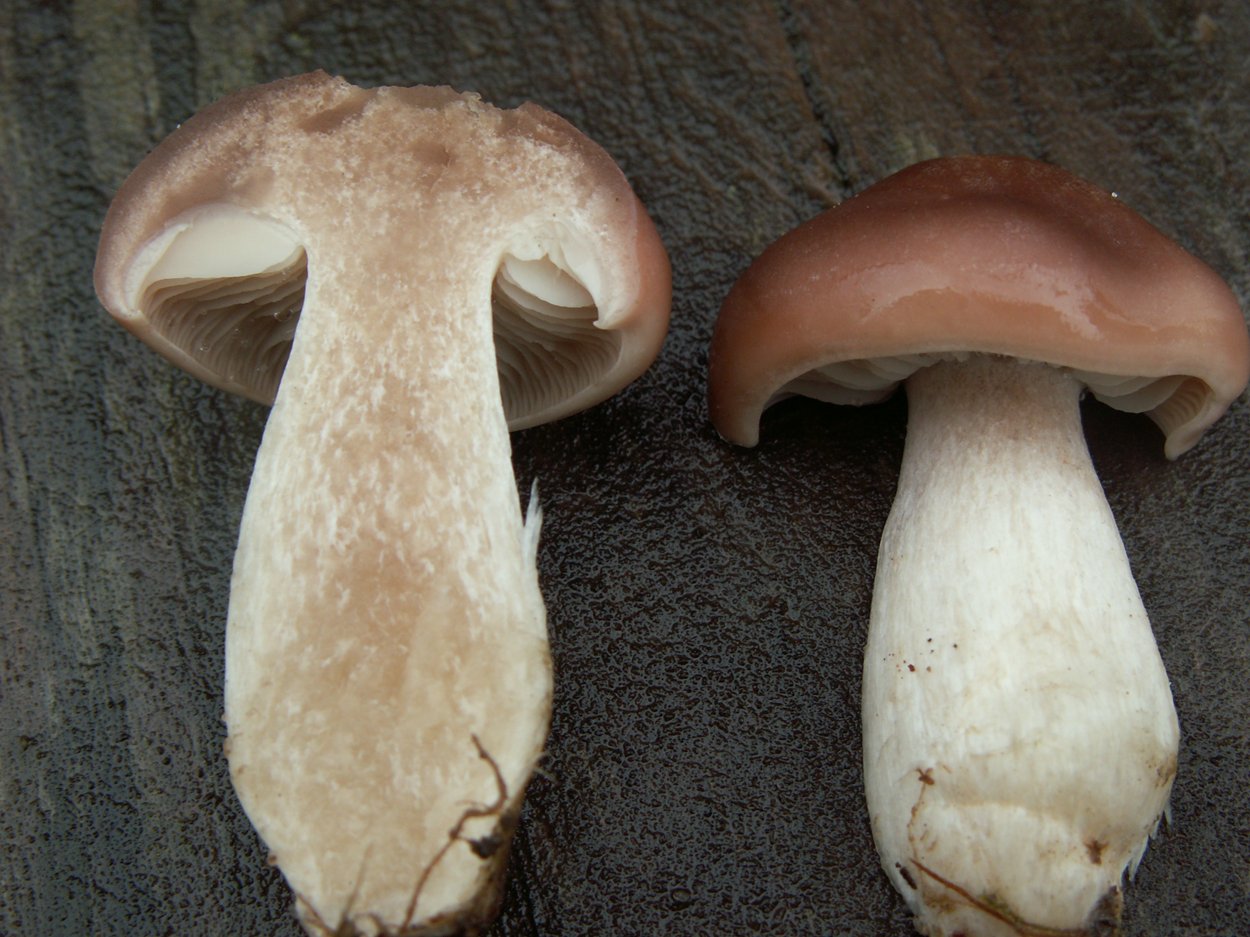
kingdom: Fungi
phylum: Basidiomycota
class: Agaricomycetes
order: Agaricales
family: Lyophyllaceae
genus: Gerhardtia
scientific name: Gerhardtia borealis
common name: rosabrun fagerhat
